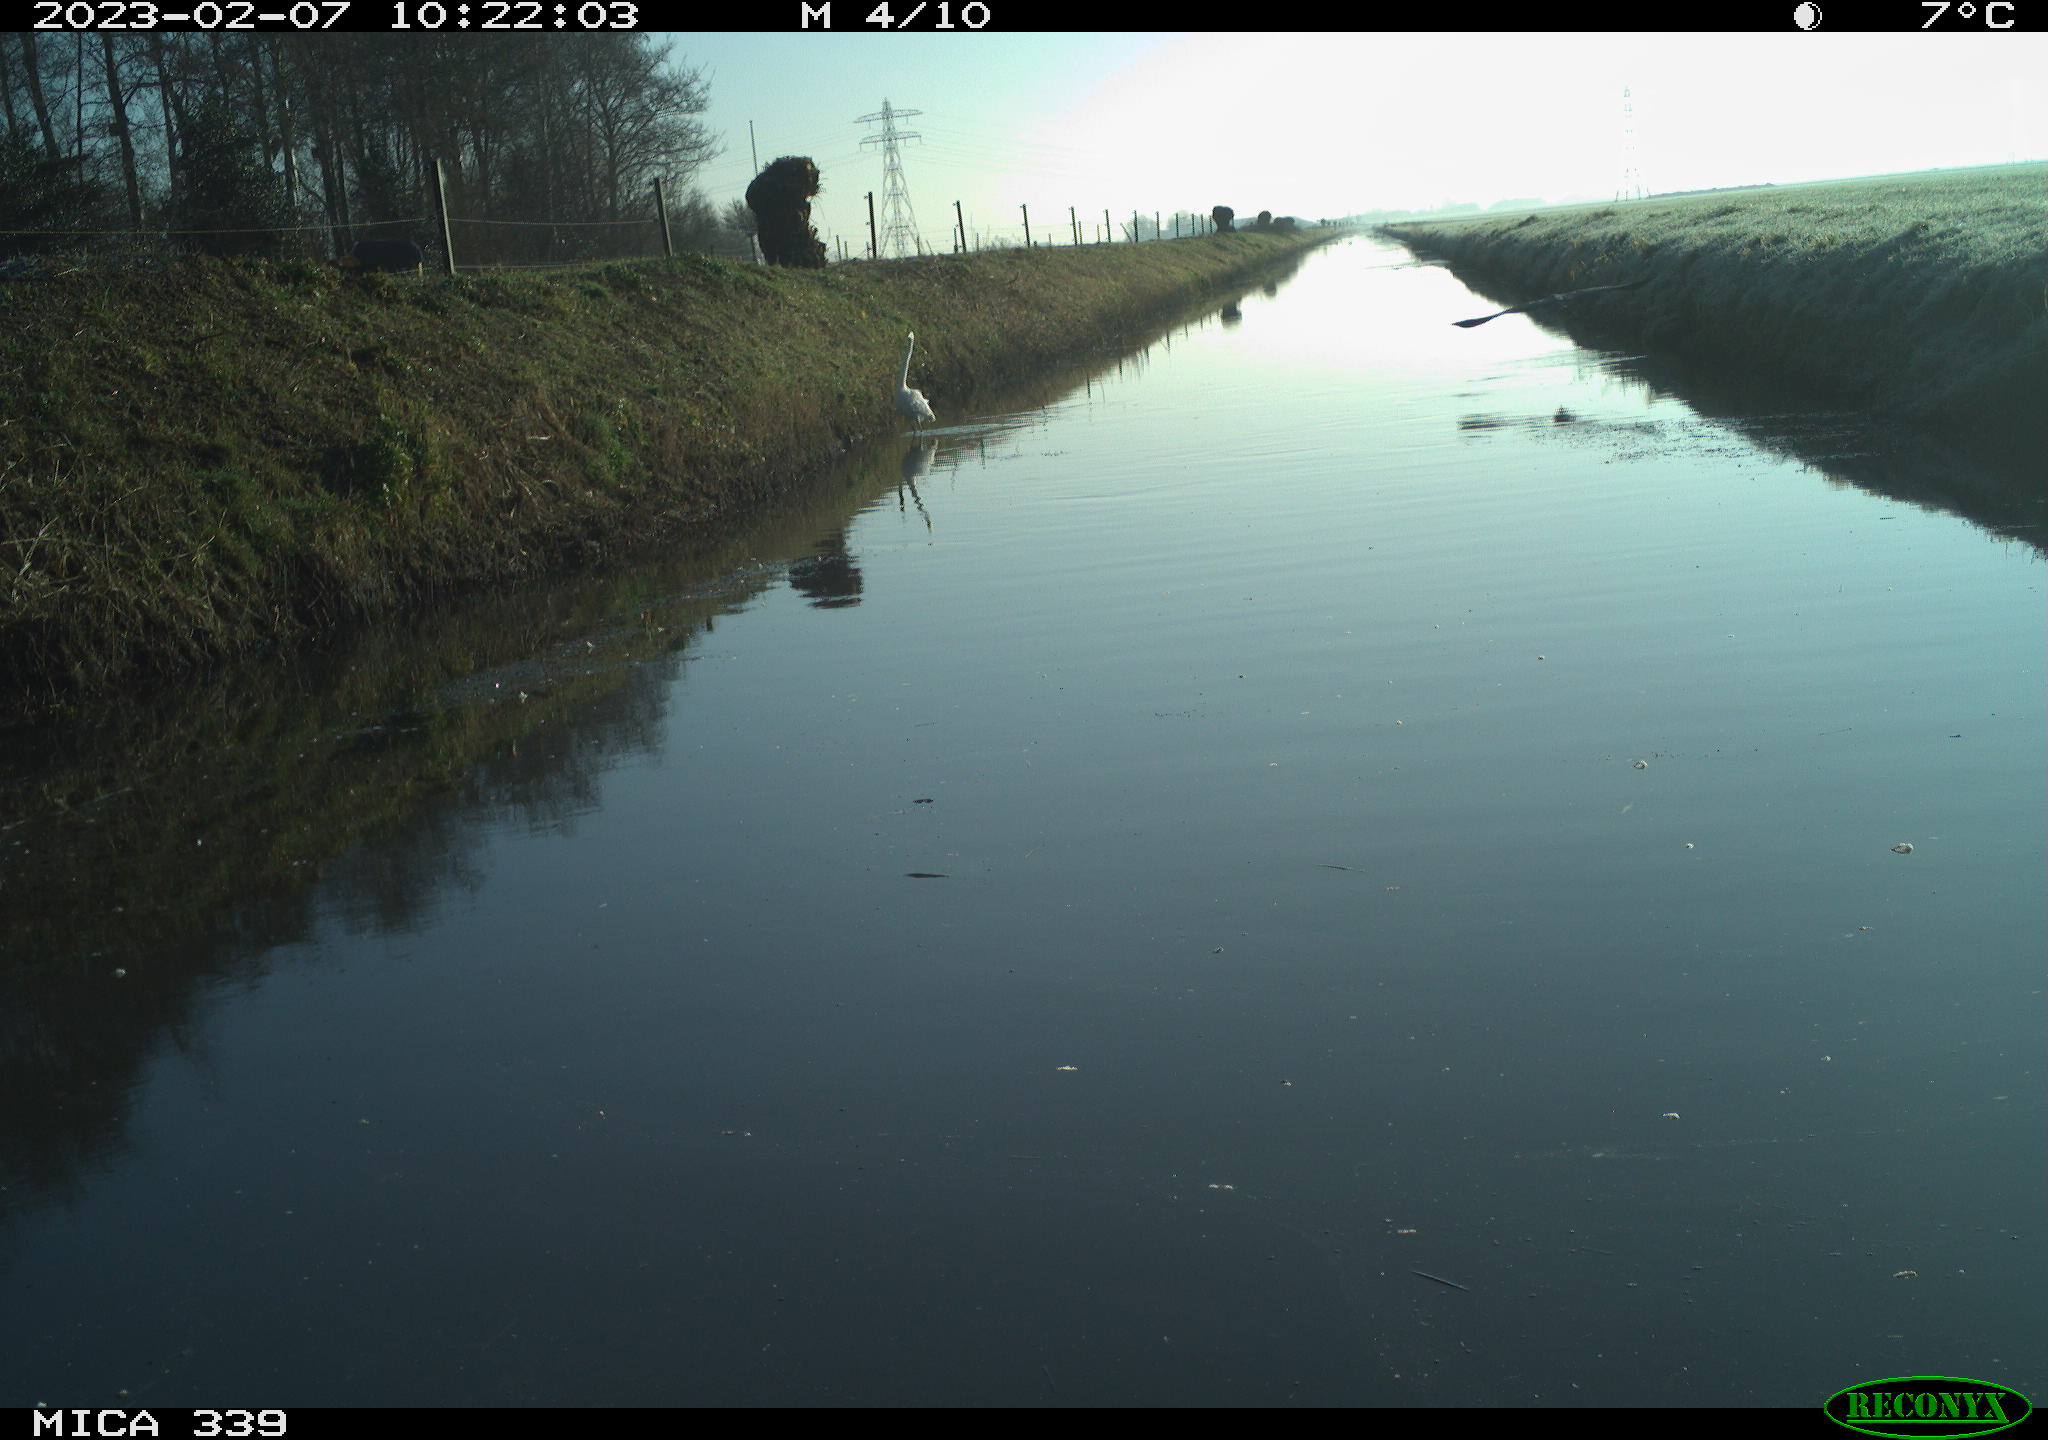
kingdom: Animalia
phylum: Chordata
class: Aves
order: Pelecaniformes
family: Ardeidae
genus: Ardea
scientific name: Ardea cinerea
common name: Grey heron
